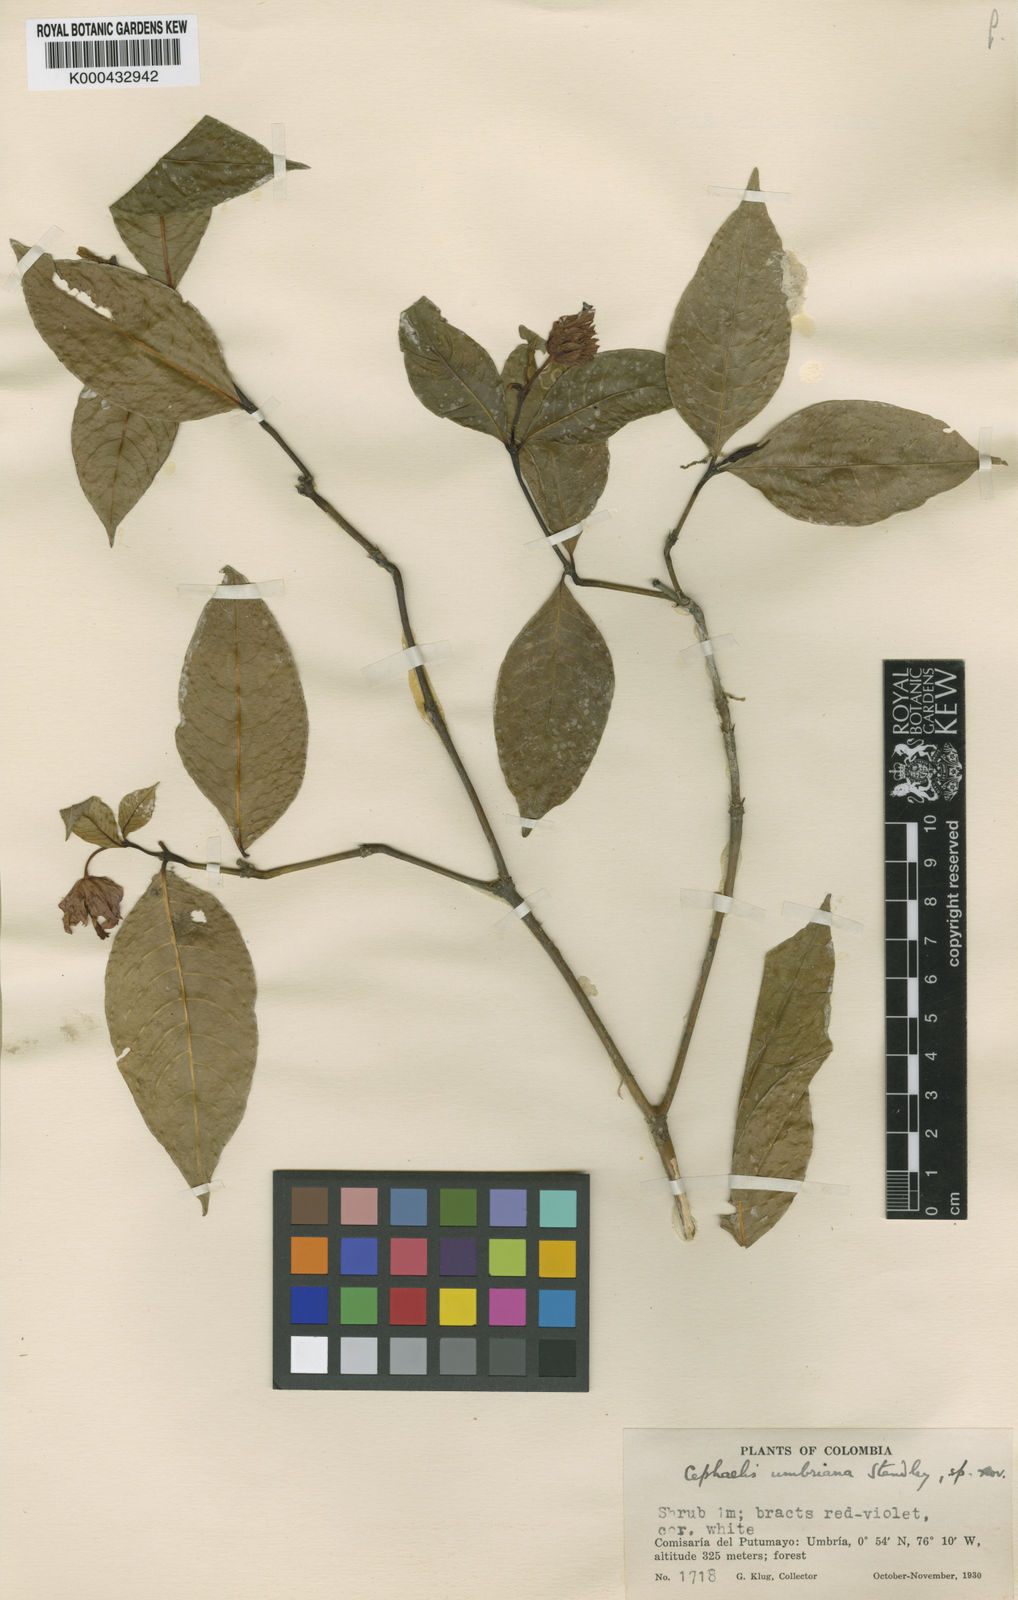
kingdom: Plantae
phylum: Tracheophyta
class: Magnoliopsida
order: Gentianales
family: Rubiaceae
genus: Palicourea
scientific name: Palicourea ostreophora
